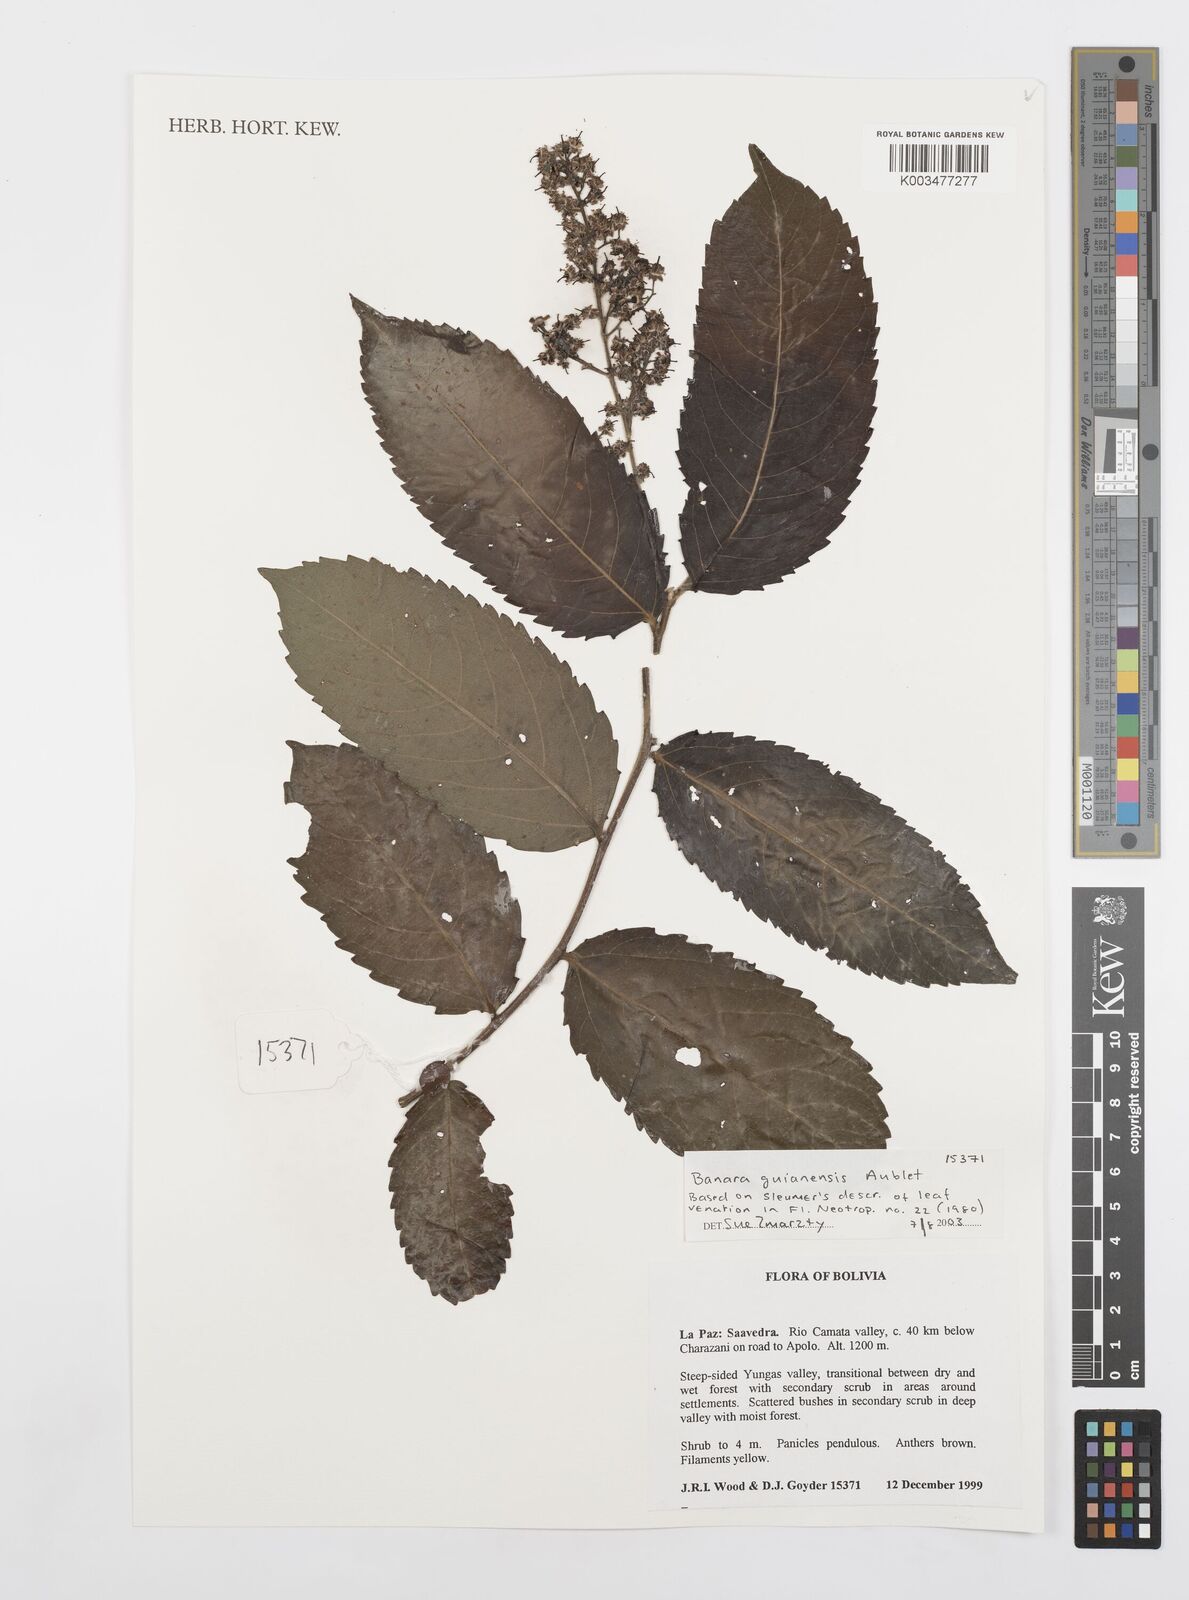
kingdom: Plantae
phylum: Tracheophyta
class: Magnoliopsida
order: Malpighiales
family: Salicaceae
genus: Banara
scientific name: Banara guianensis
